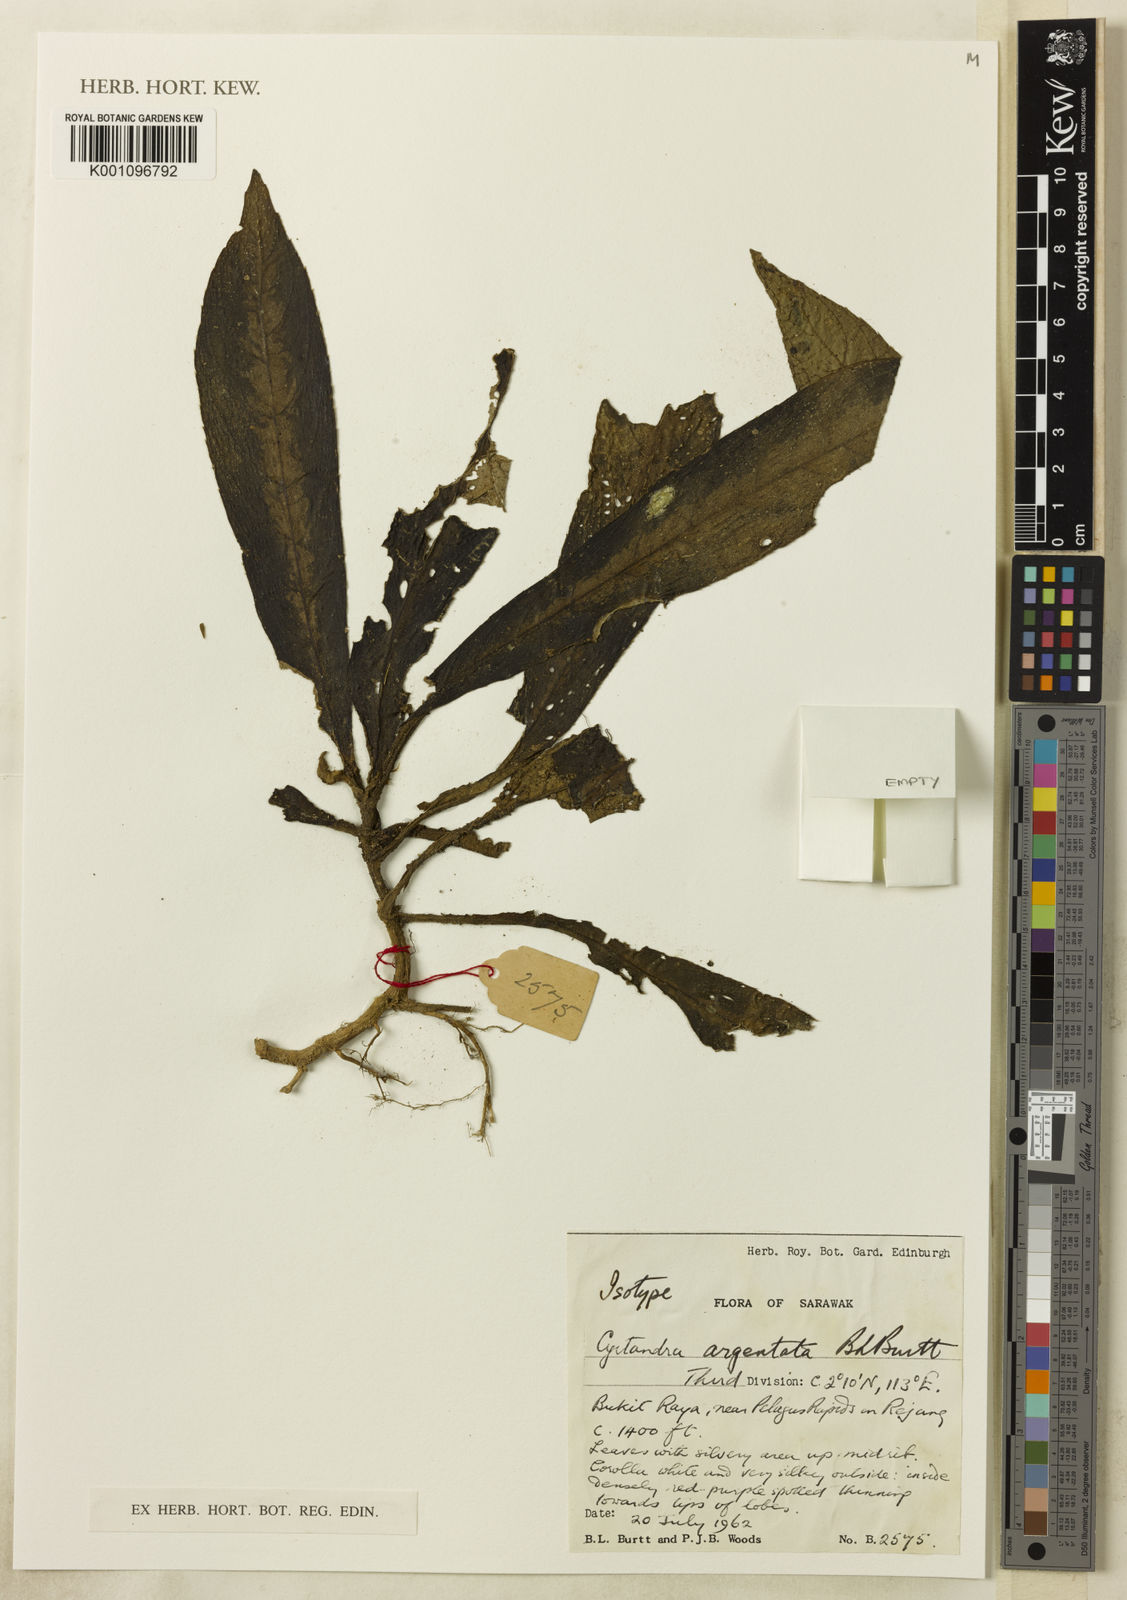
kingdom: Plantae
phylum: Tracheophyta
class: Magnoliopsida
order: Lamiales
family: Gesneriaceae
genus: Cyrtandra
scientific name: Cyrtandra argentata
